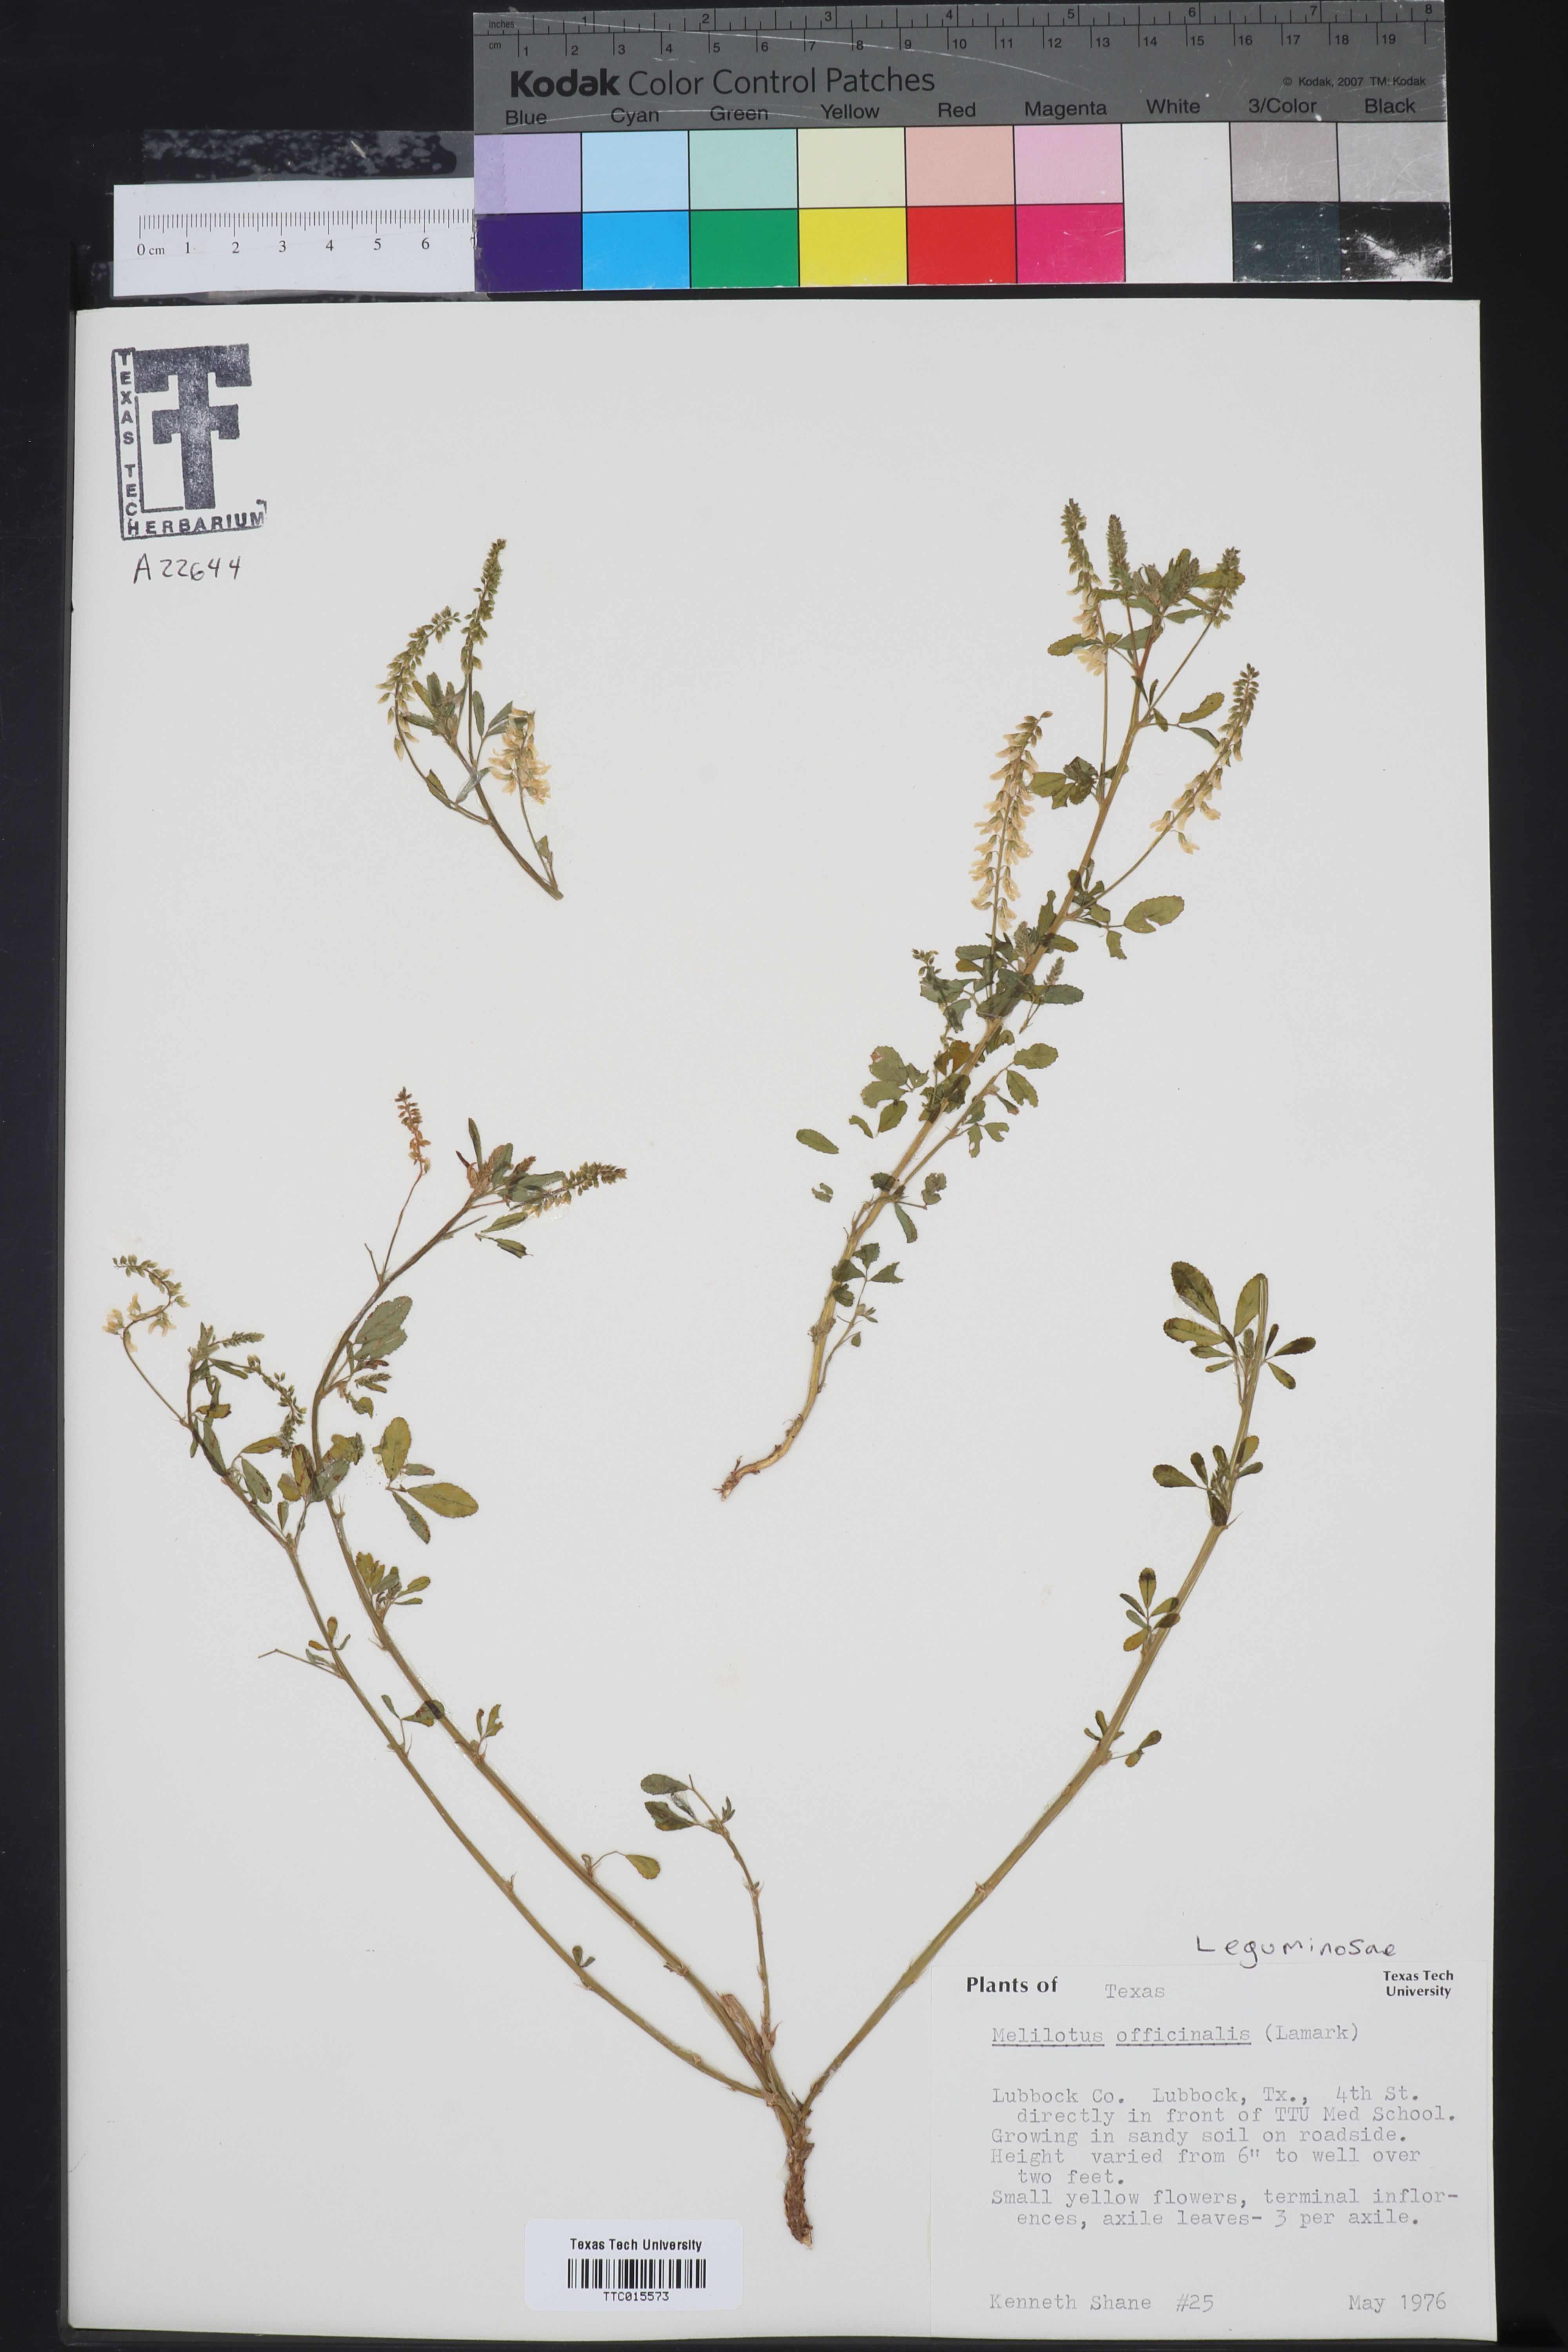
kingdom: Plantae
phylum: Tracheophyta
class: Magnoliopsida
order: Fabales
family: Fabaceae
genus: Melilotus
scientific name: Melilotus officinalis
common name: Sweetclover
